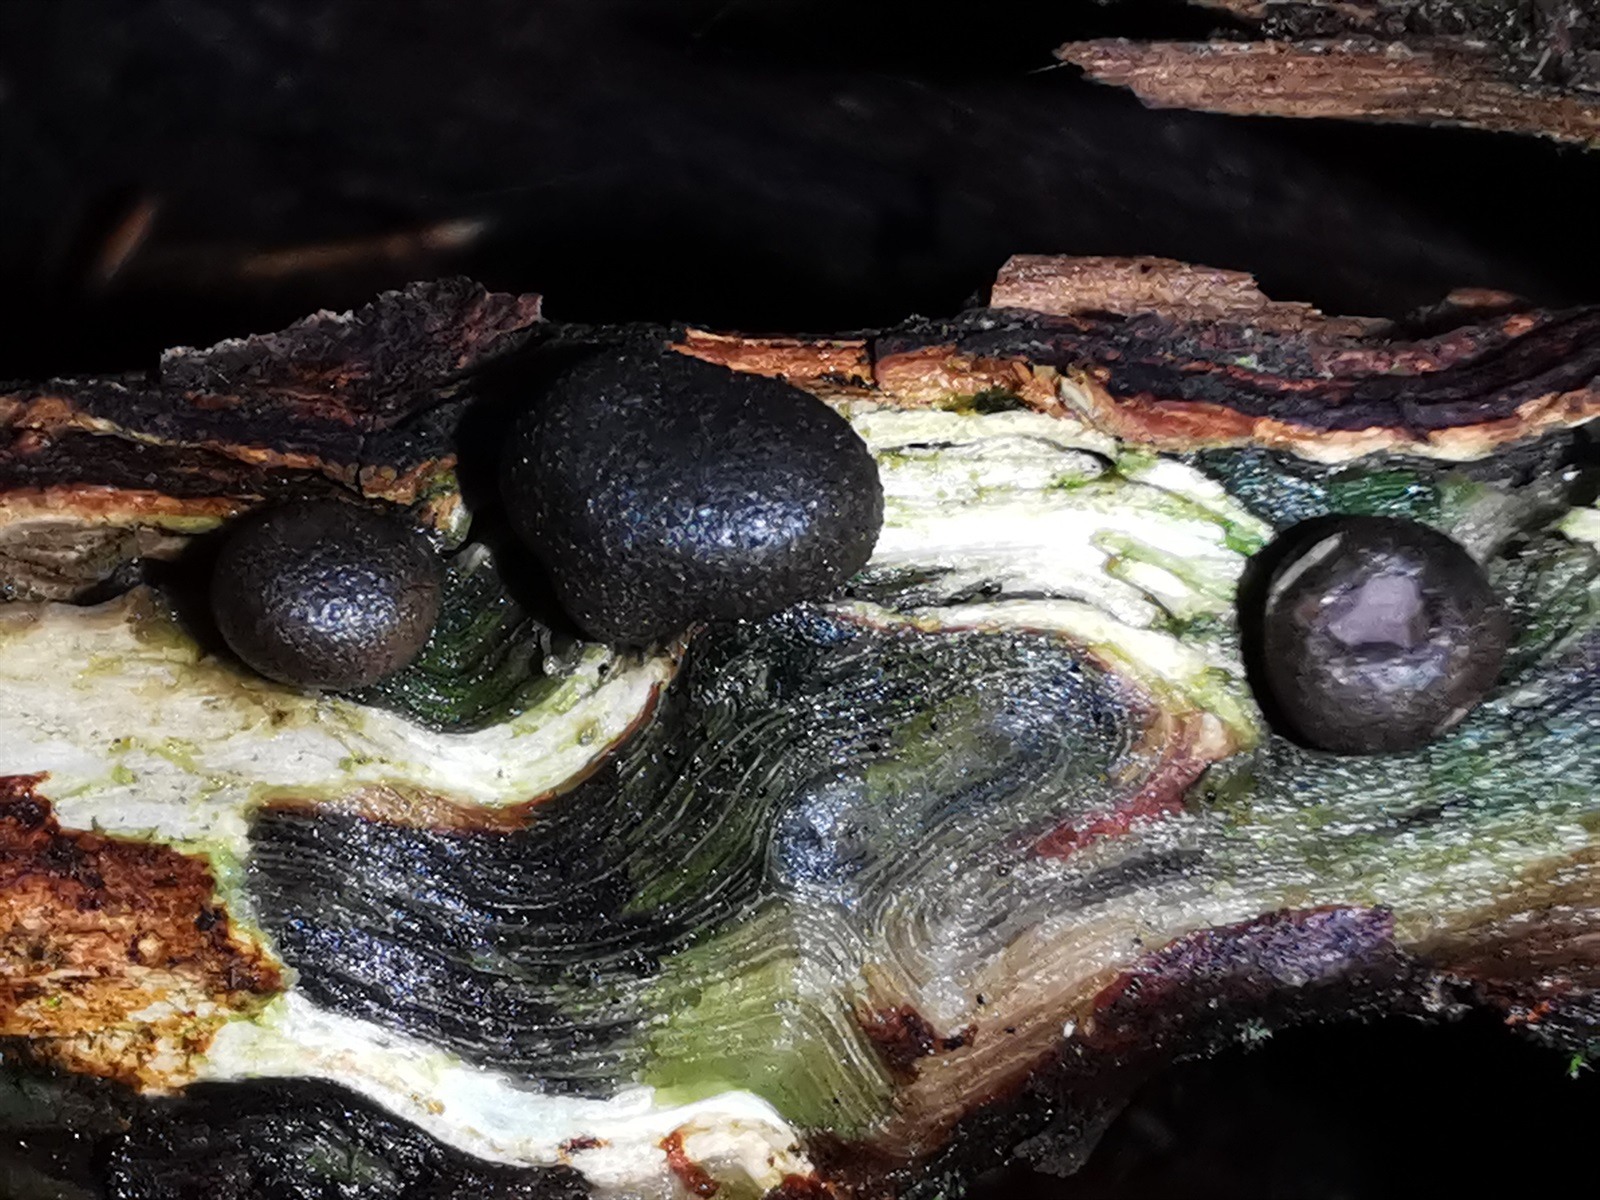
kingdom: Protozoa
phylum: Mycetozoa
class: Myxomycetes
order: Cribrariales
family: Tubiferaceae
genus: Lycogala
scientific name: Lycogala
